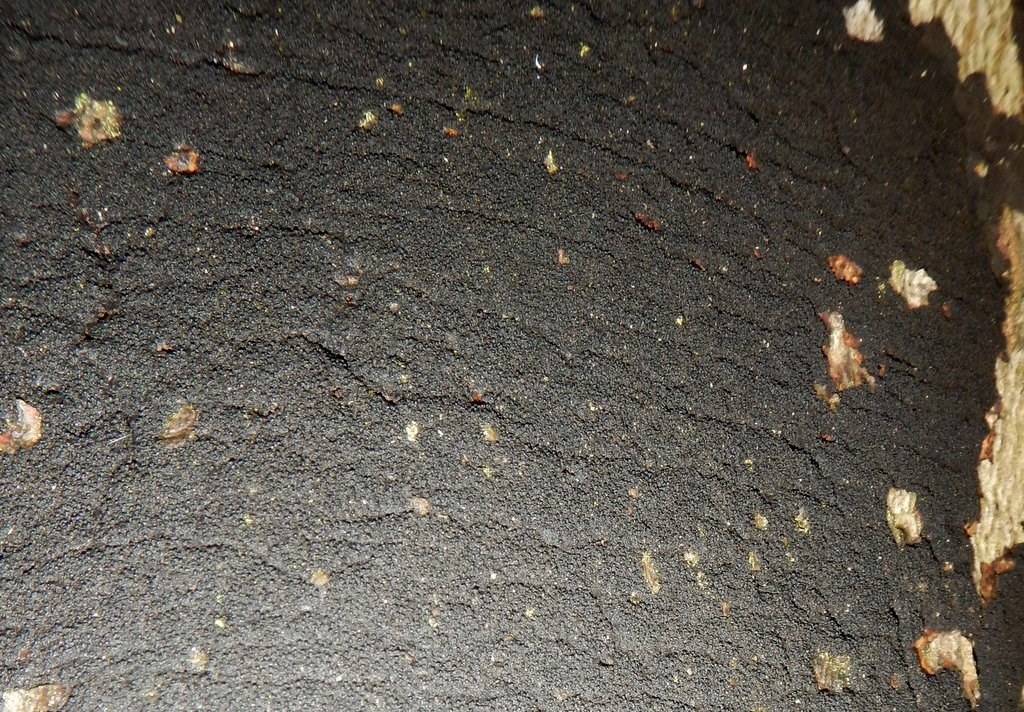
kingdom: Fungi
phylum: Ascomycota
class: Sordariomycetes
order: Xylariales
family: Diatrypaceae
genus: Eutypa
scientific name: Eutypa spinosa
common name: grov kulskorpe
